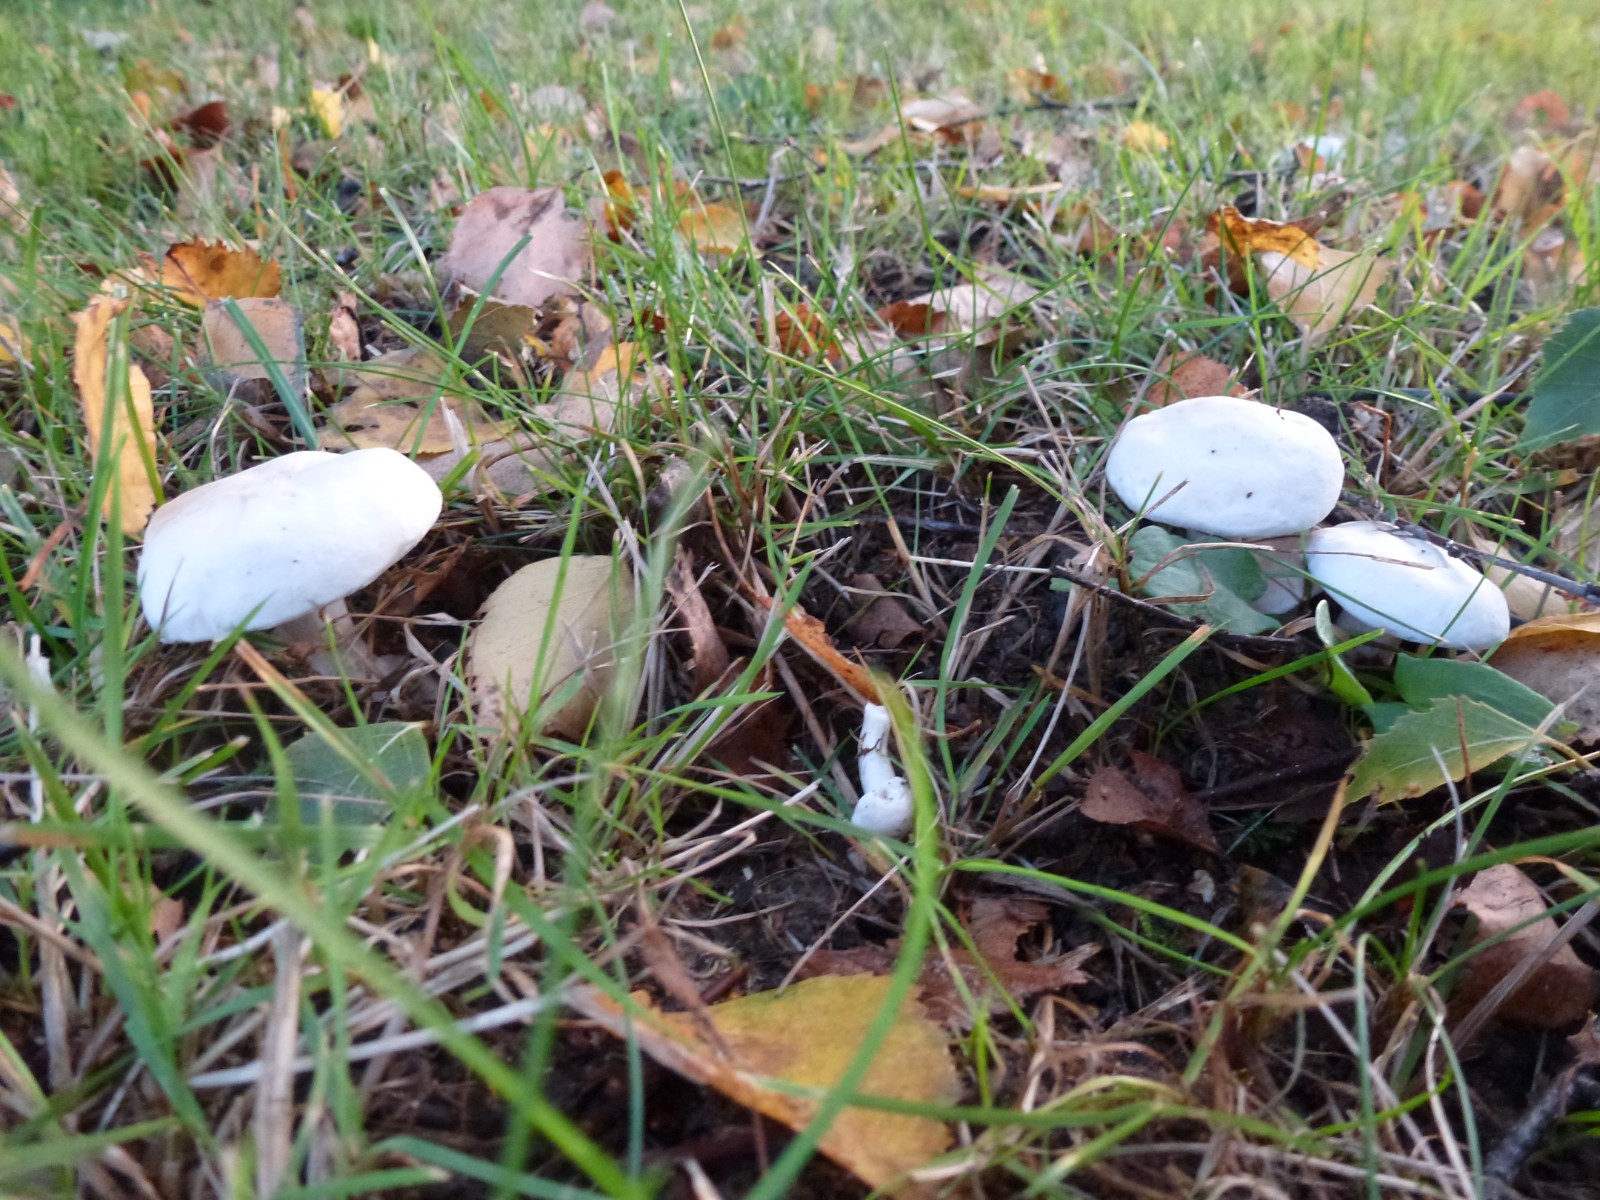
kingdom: Fungi
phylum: Basidiomycota
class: Agaricomycetes
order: Agaricales
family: Entolomataceae
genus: Clitopilus
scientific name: Clitopilus prunulus
